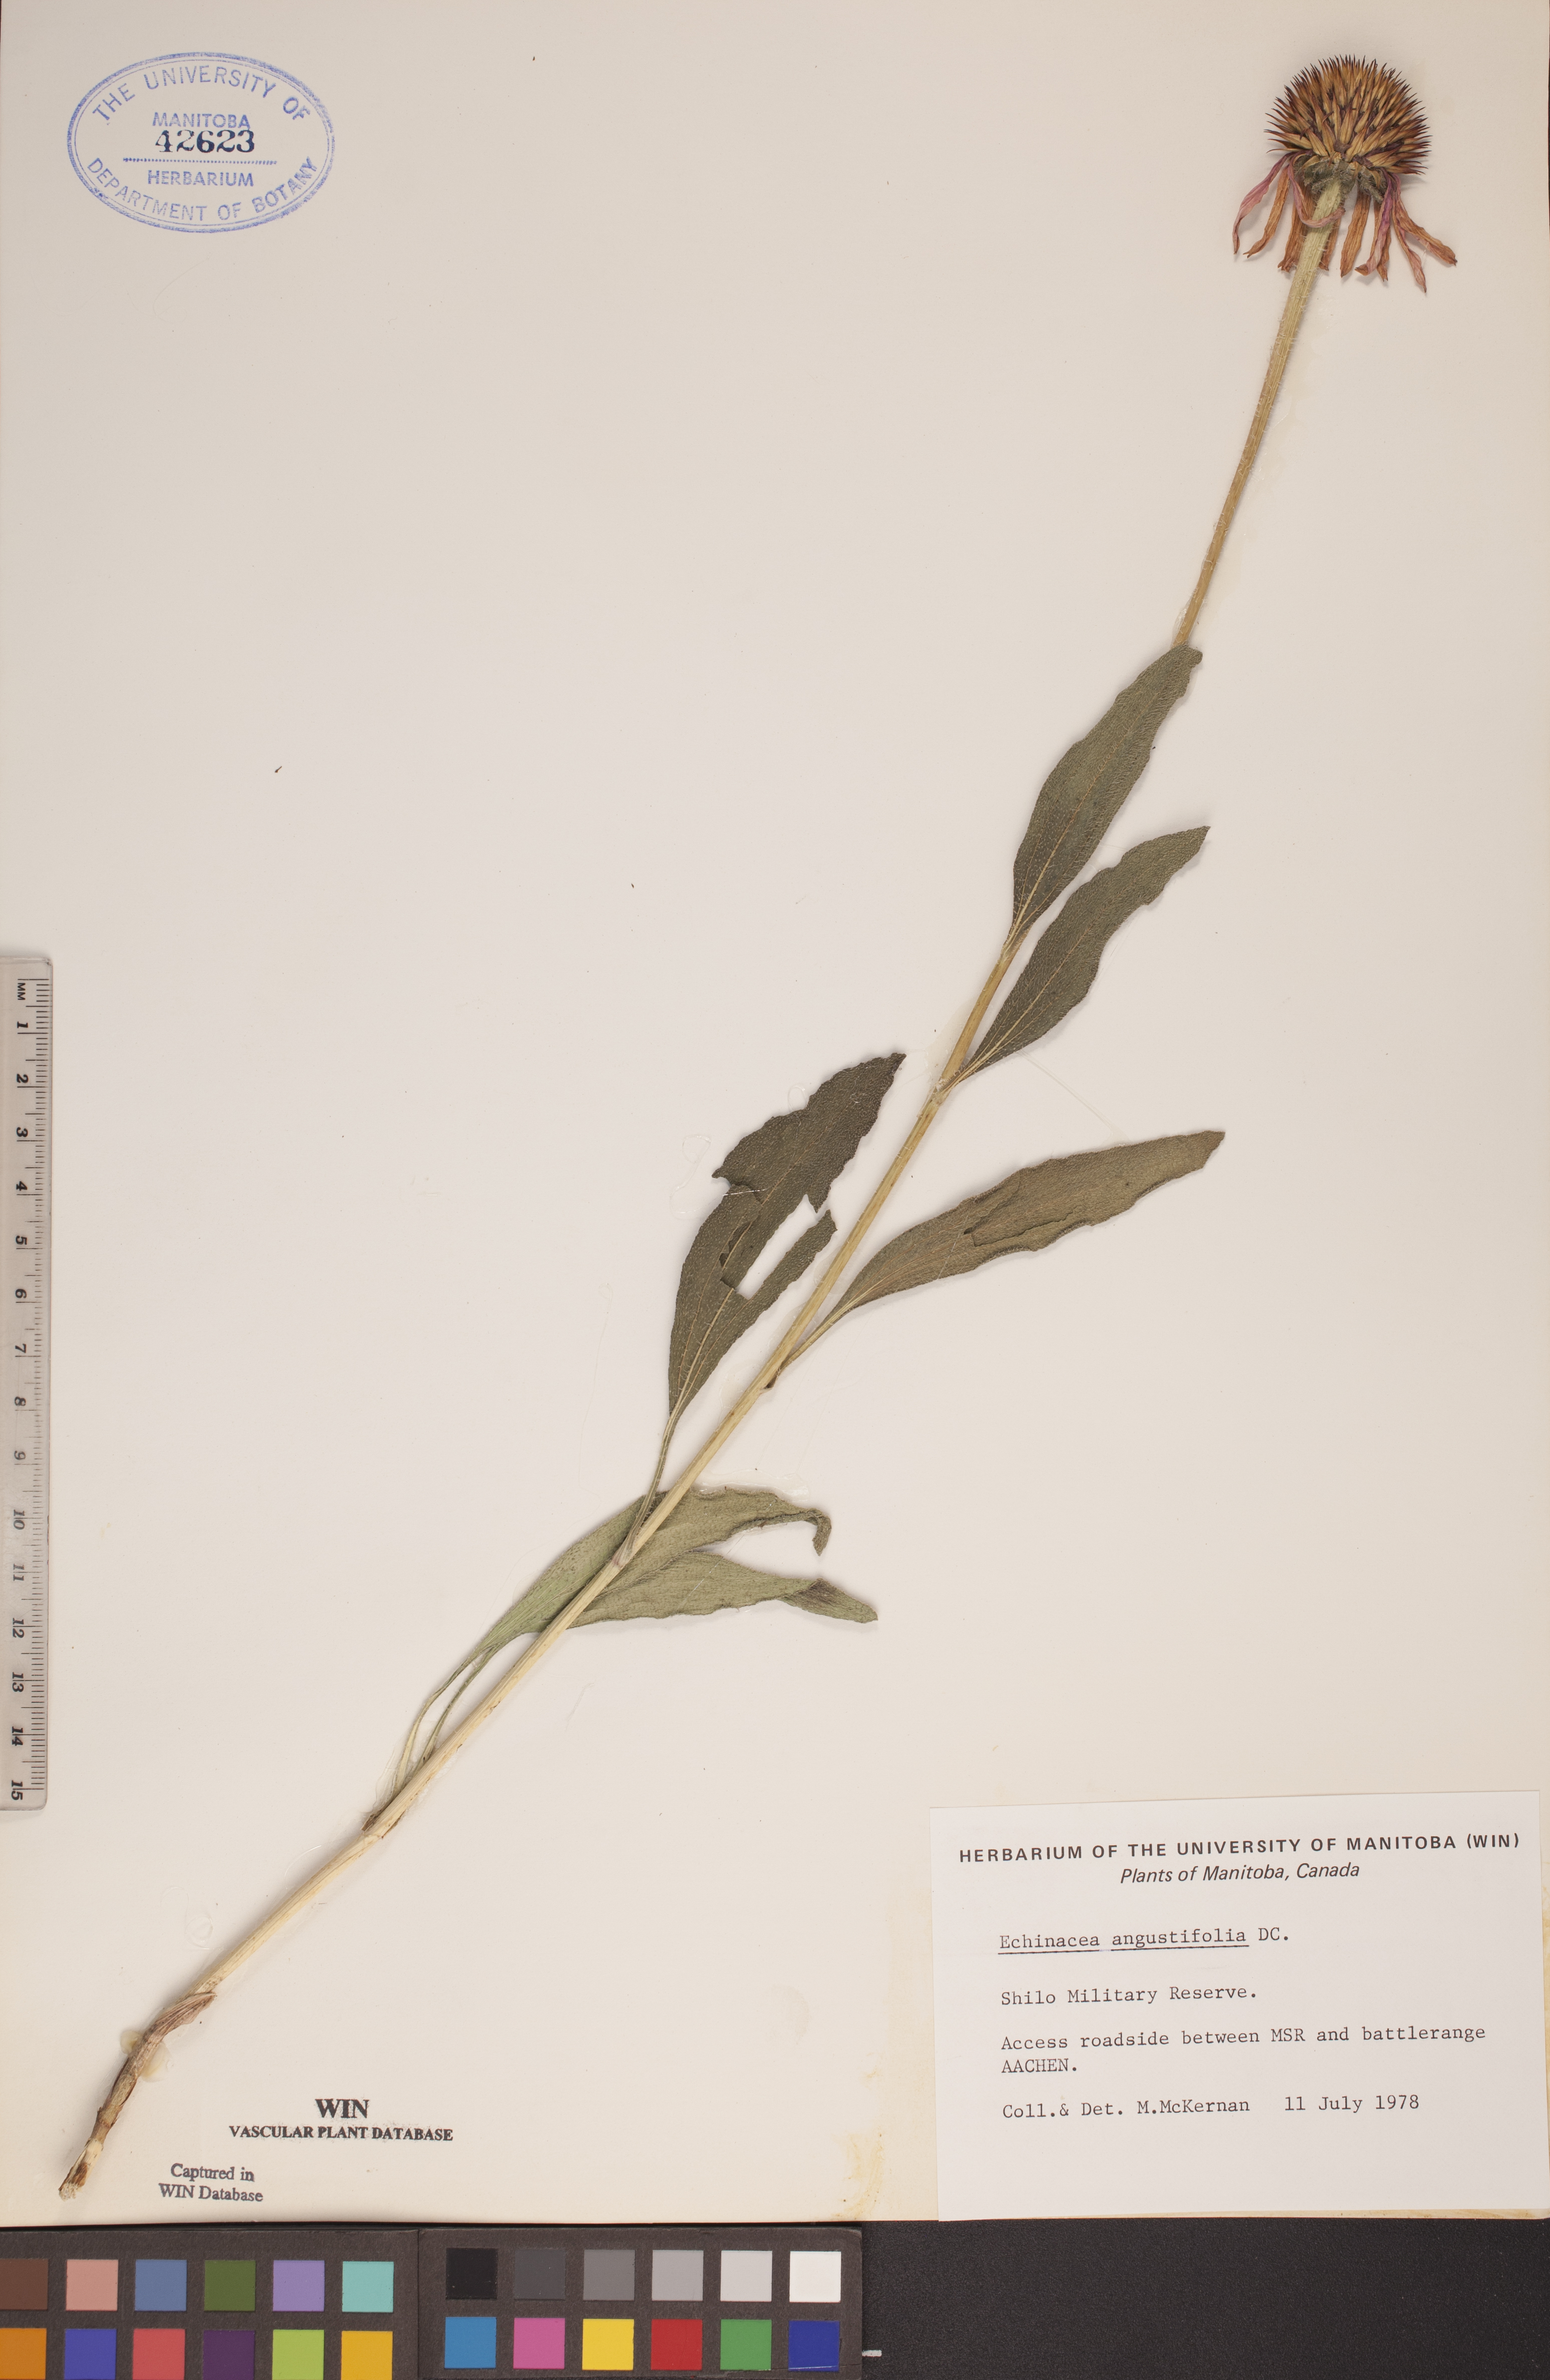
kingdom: Plantae
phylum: Tracheophyta
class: Magnoliopsida
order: Asterales
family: Asteraceae
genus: Echinacea
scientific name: Echinacea angustifolia
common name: Black-sampson echinacea
